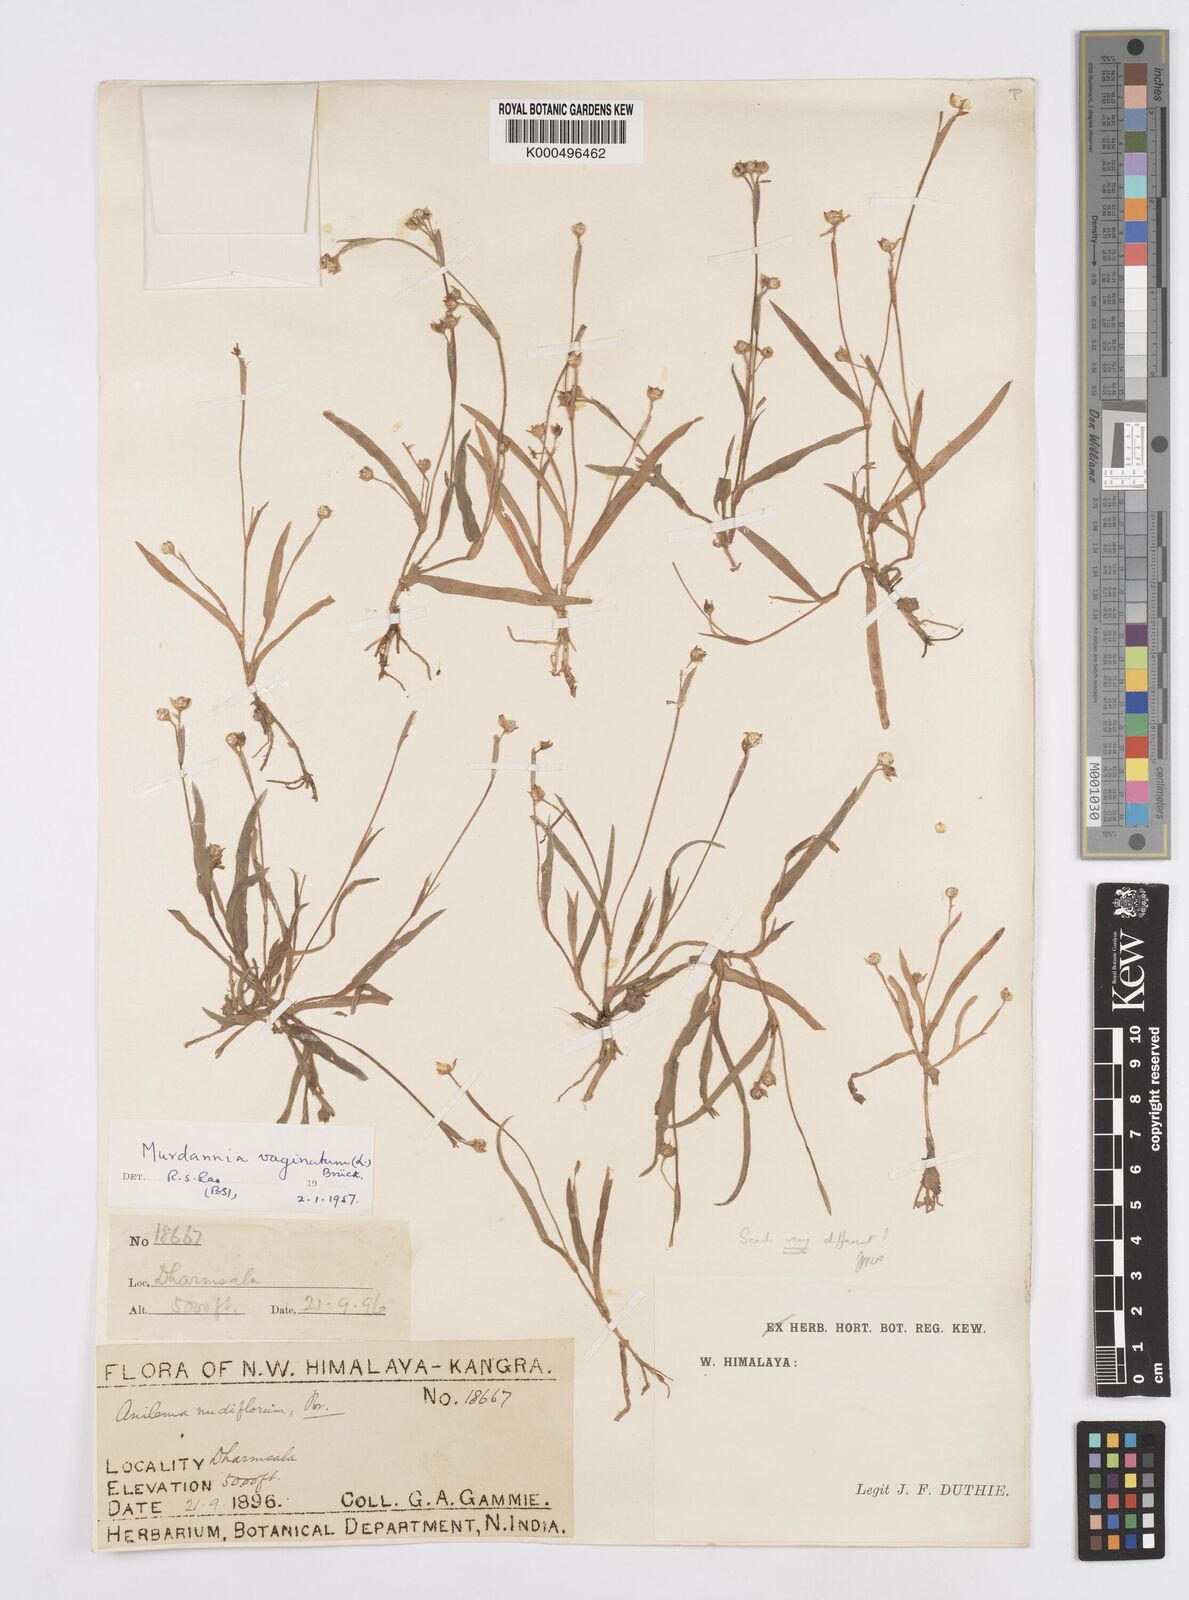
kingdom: Plantae
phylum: Tracheophyta
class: Liliopsida
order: Commelinales
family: Commelinaceae
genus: Murdannia
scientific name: Murdannia
